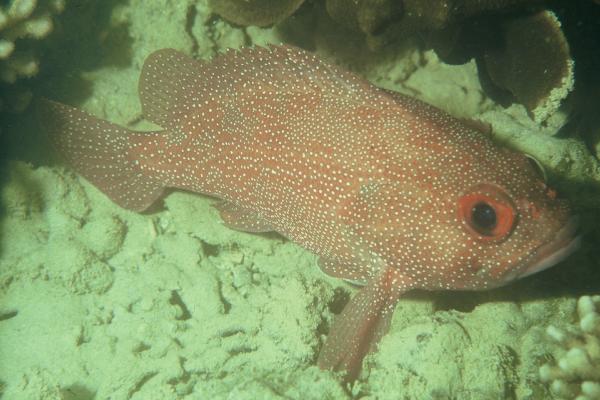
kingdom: Animalia
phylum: Chordata
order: Perciformes
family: Serranidae
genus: Trachypoma
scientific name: Trachypoma macracanthus
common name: Toadstool grouper
